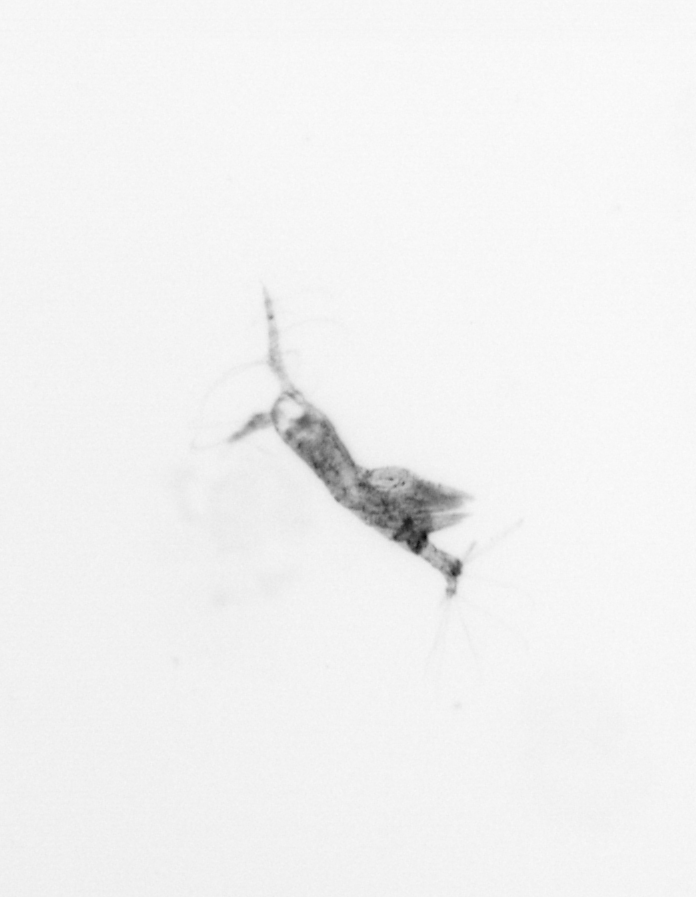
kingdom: Animalia
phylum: Arthropoda
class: Copepoda
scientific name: Copepoda
